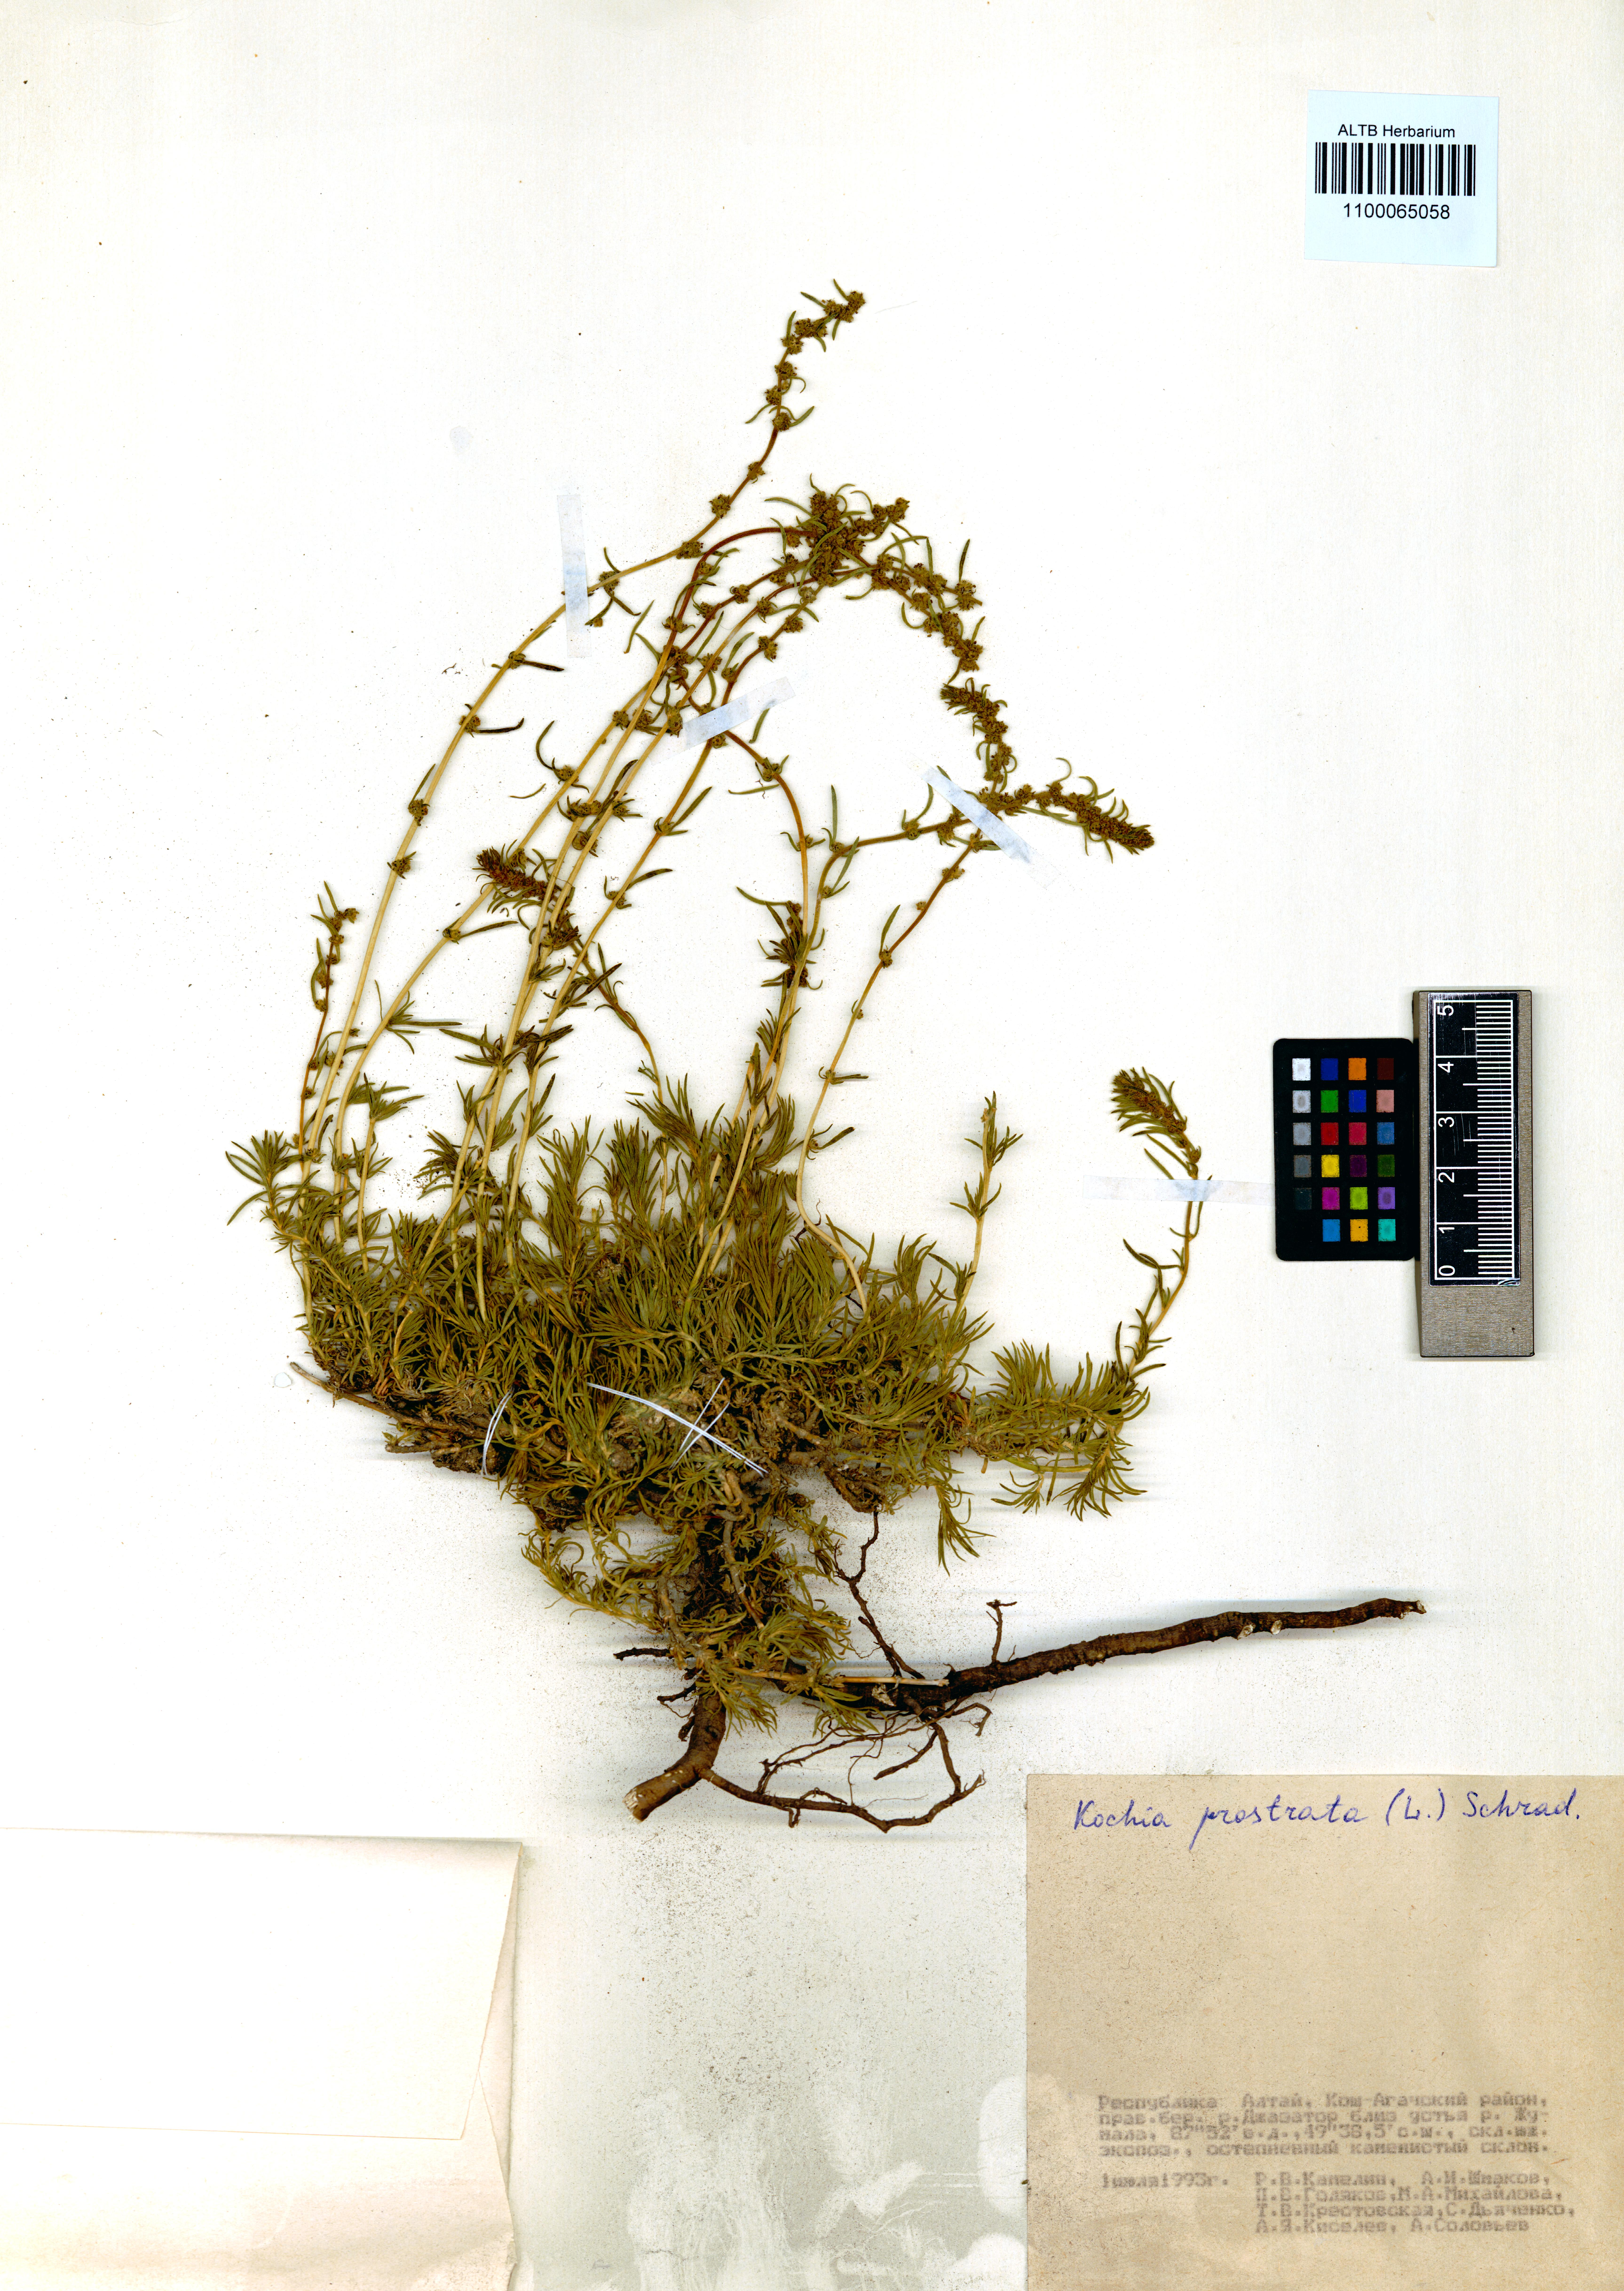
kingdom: Plantae
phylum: Tracheophyta
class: Magnoliopsida
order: Caryophyllales
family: Amaranthaceae
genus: Bassia
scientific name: Bassia prostrata
